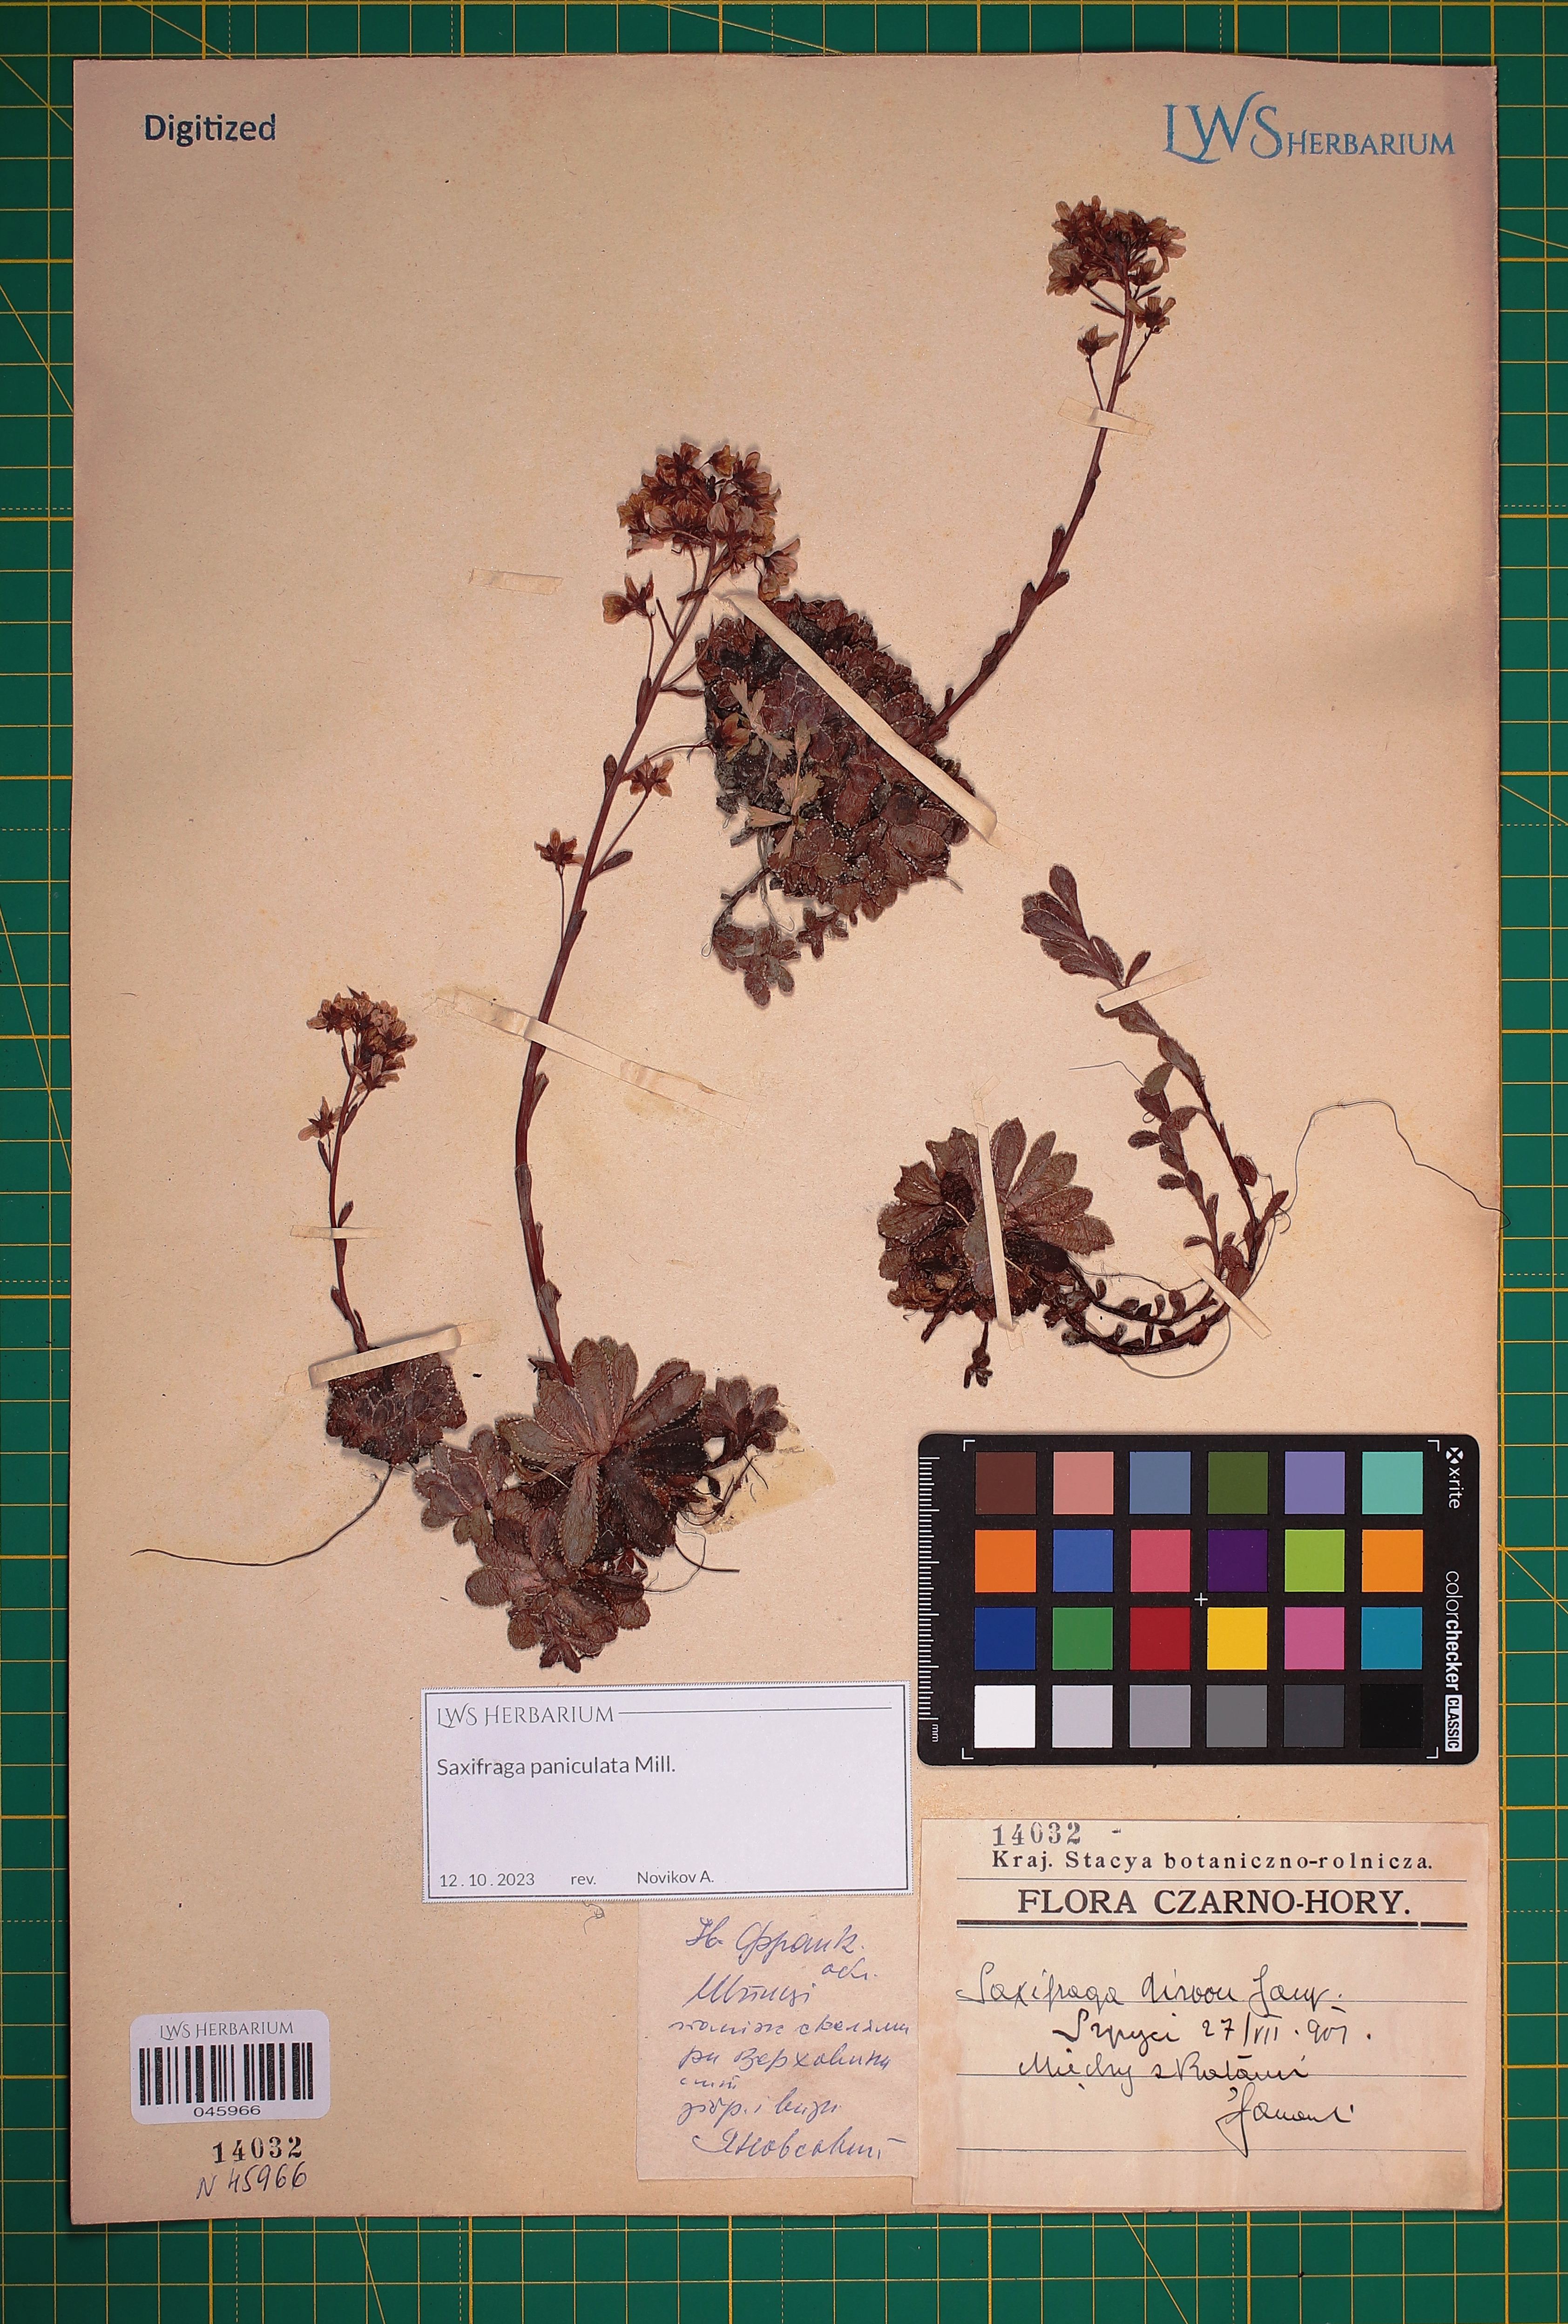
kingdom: Plantae
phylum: Tracheophyta
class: Magnoliopsida
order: Saxifragales
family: Saxifragaceae
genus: Saxifraga
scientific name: Saxifraga paniculata
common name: Livelong saxifrage
